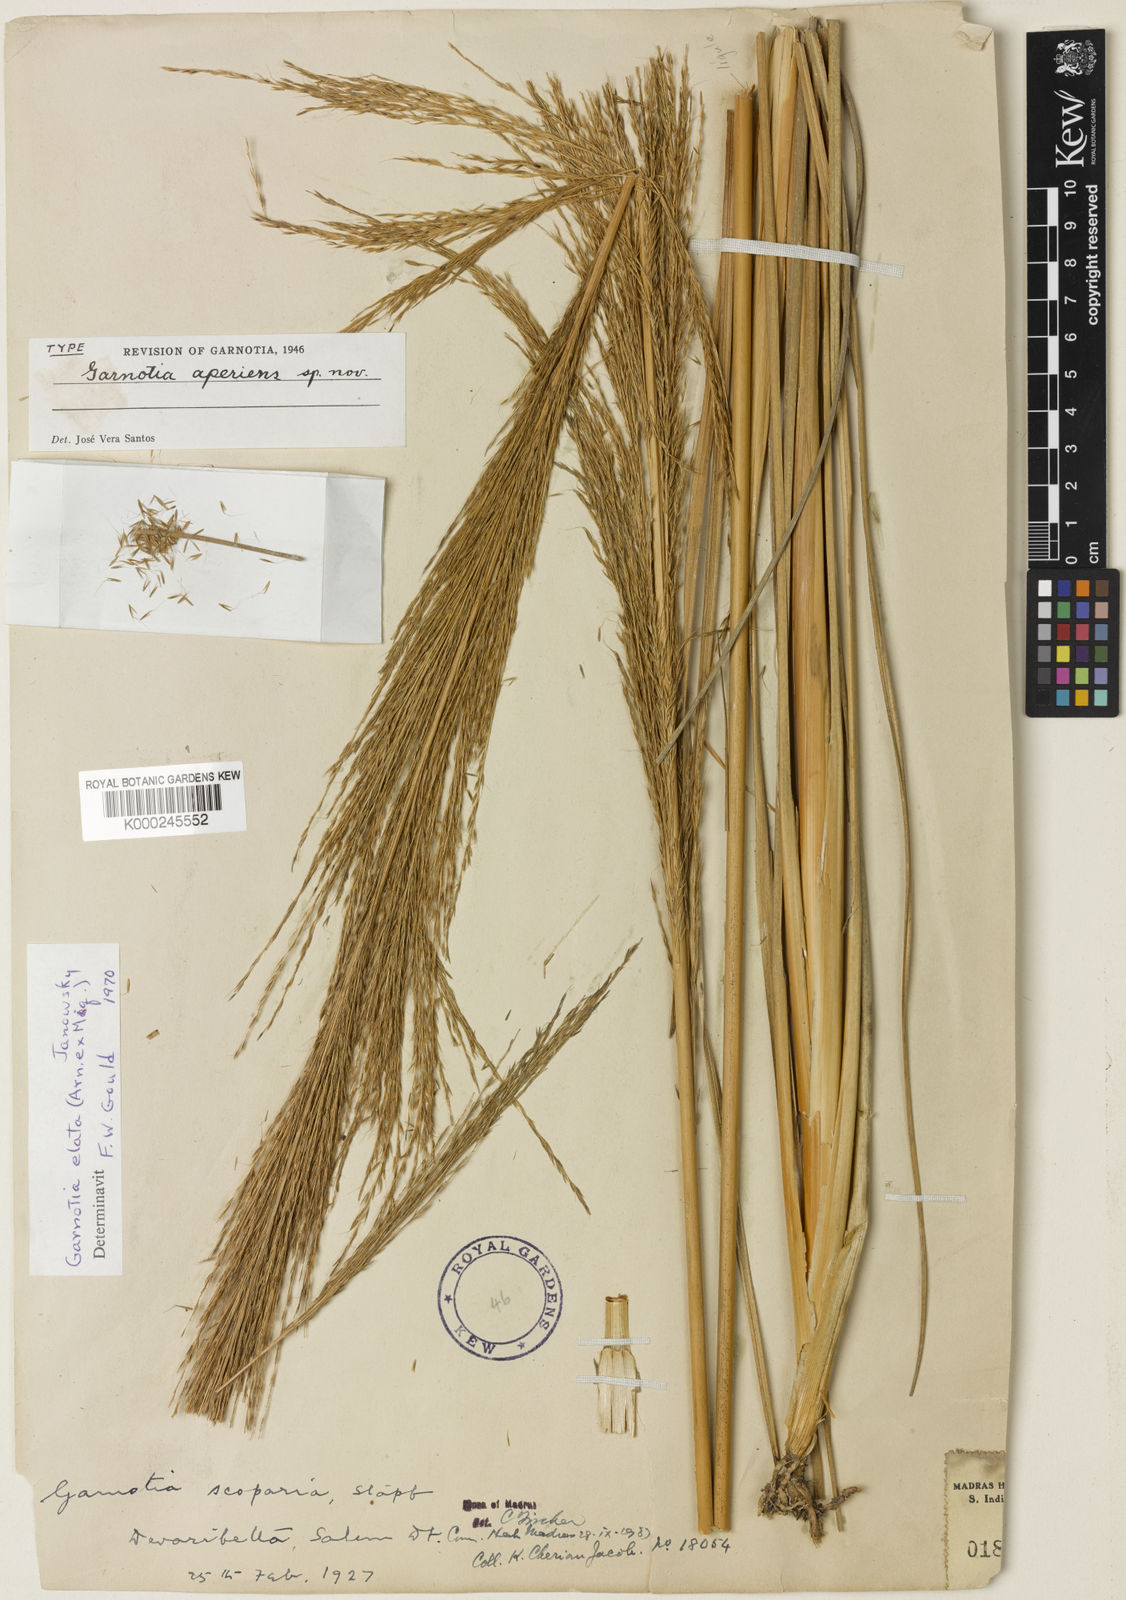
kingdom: Plantae
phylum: Tracheophyta
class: Liliopsida
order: Poales
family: Poaceae
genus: Garnotia
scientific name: Garnotia elata
